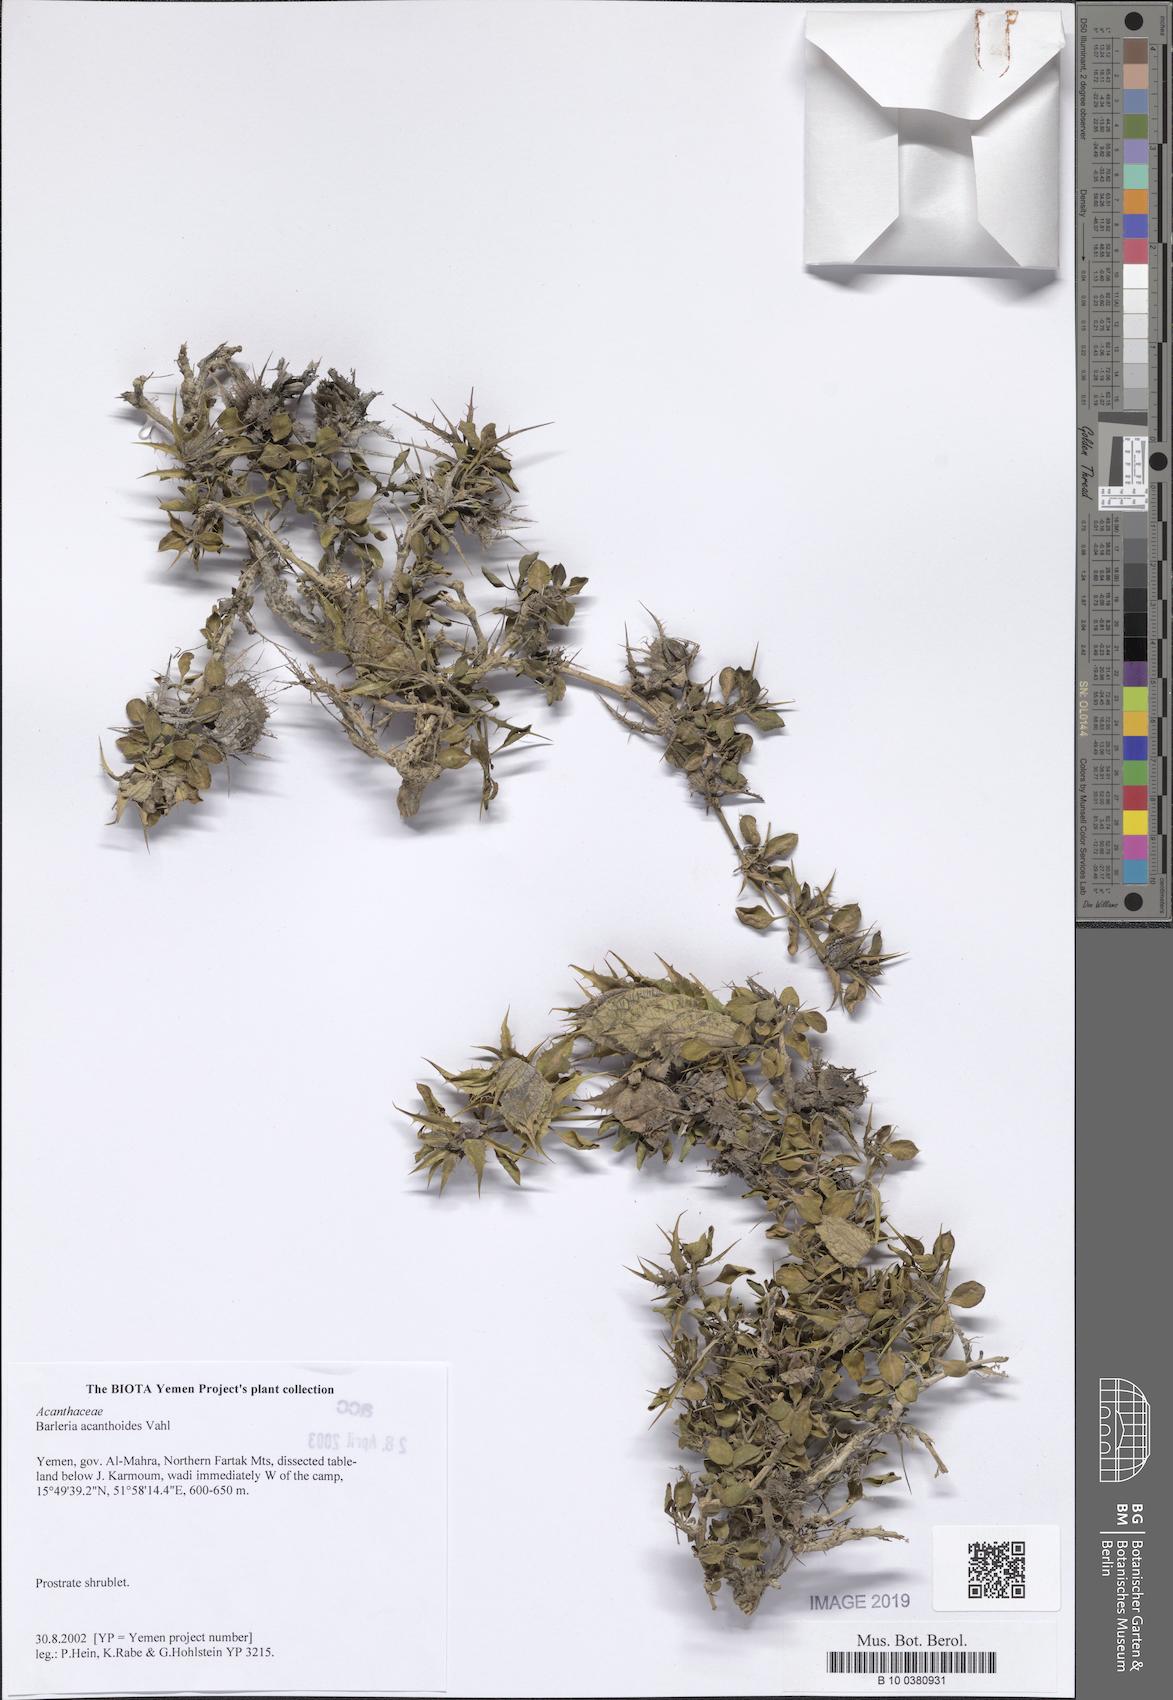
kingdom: Plantae
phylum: Tracheophyta
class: Magnoliopsida
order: Lamiales
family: Acanthaceae
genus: Barleria
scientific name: Barleria acanthoides
